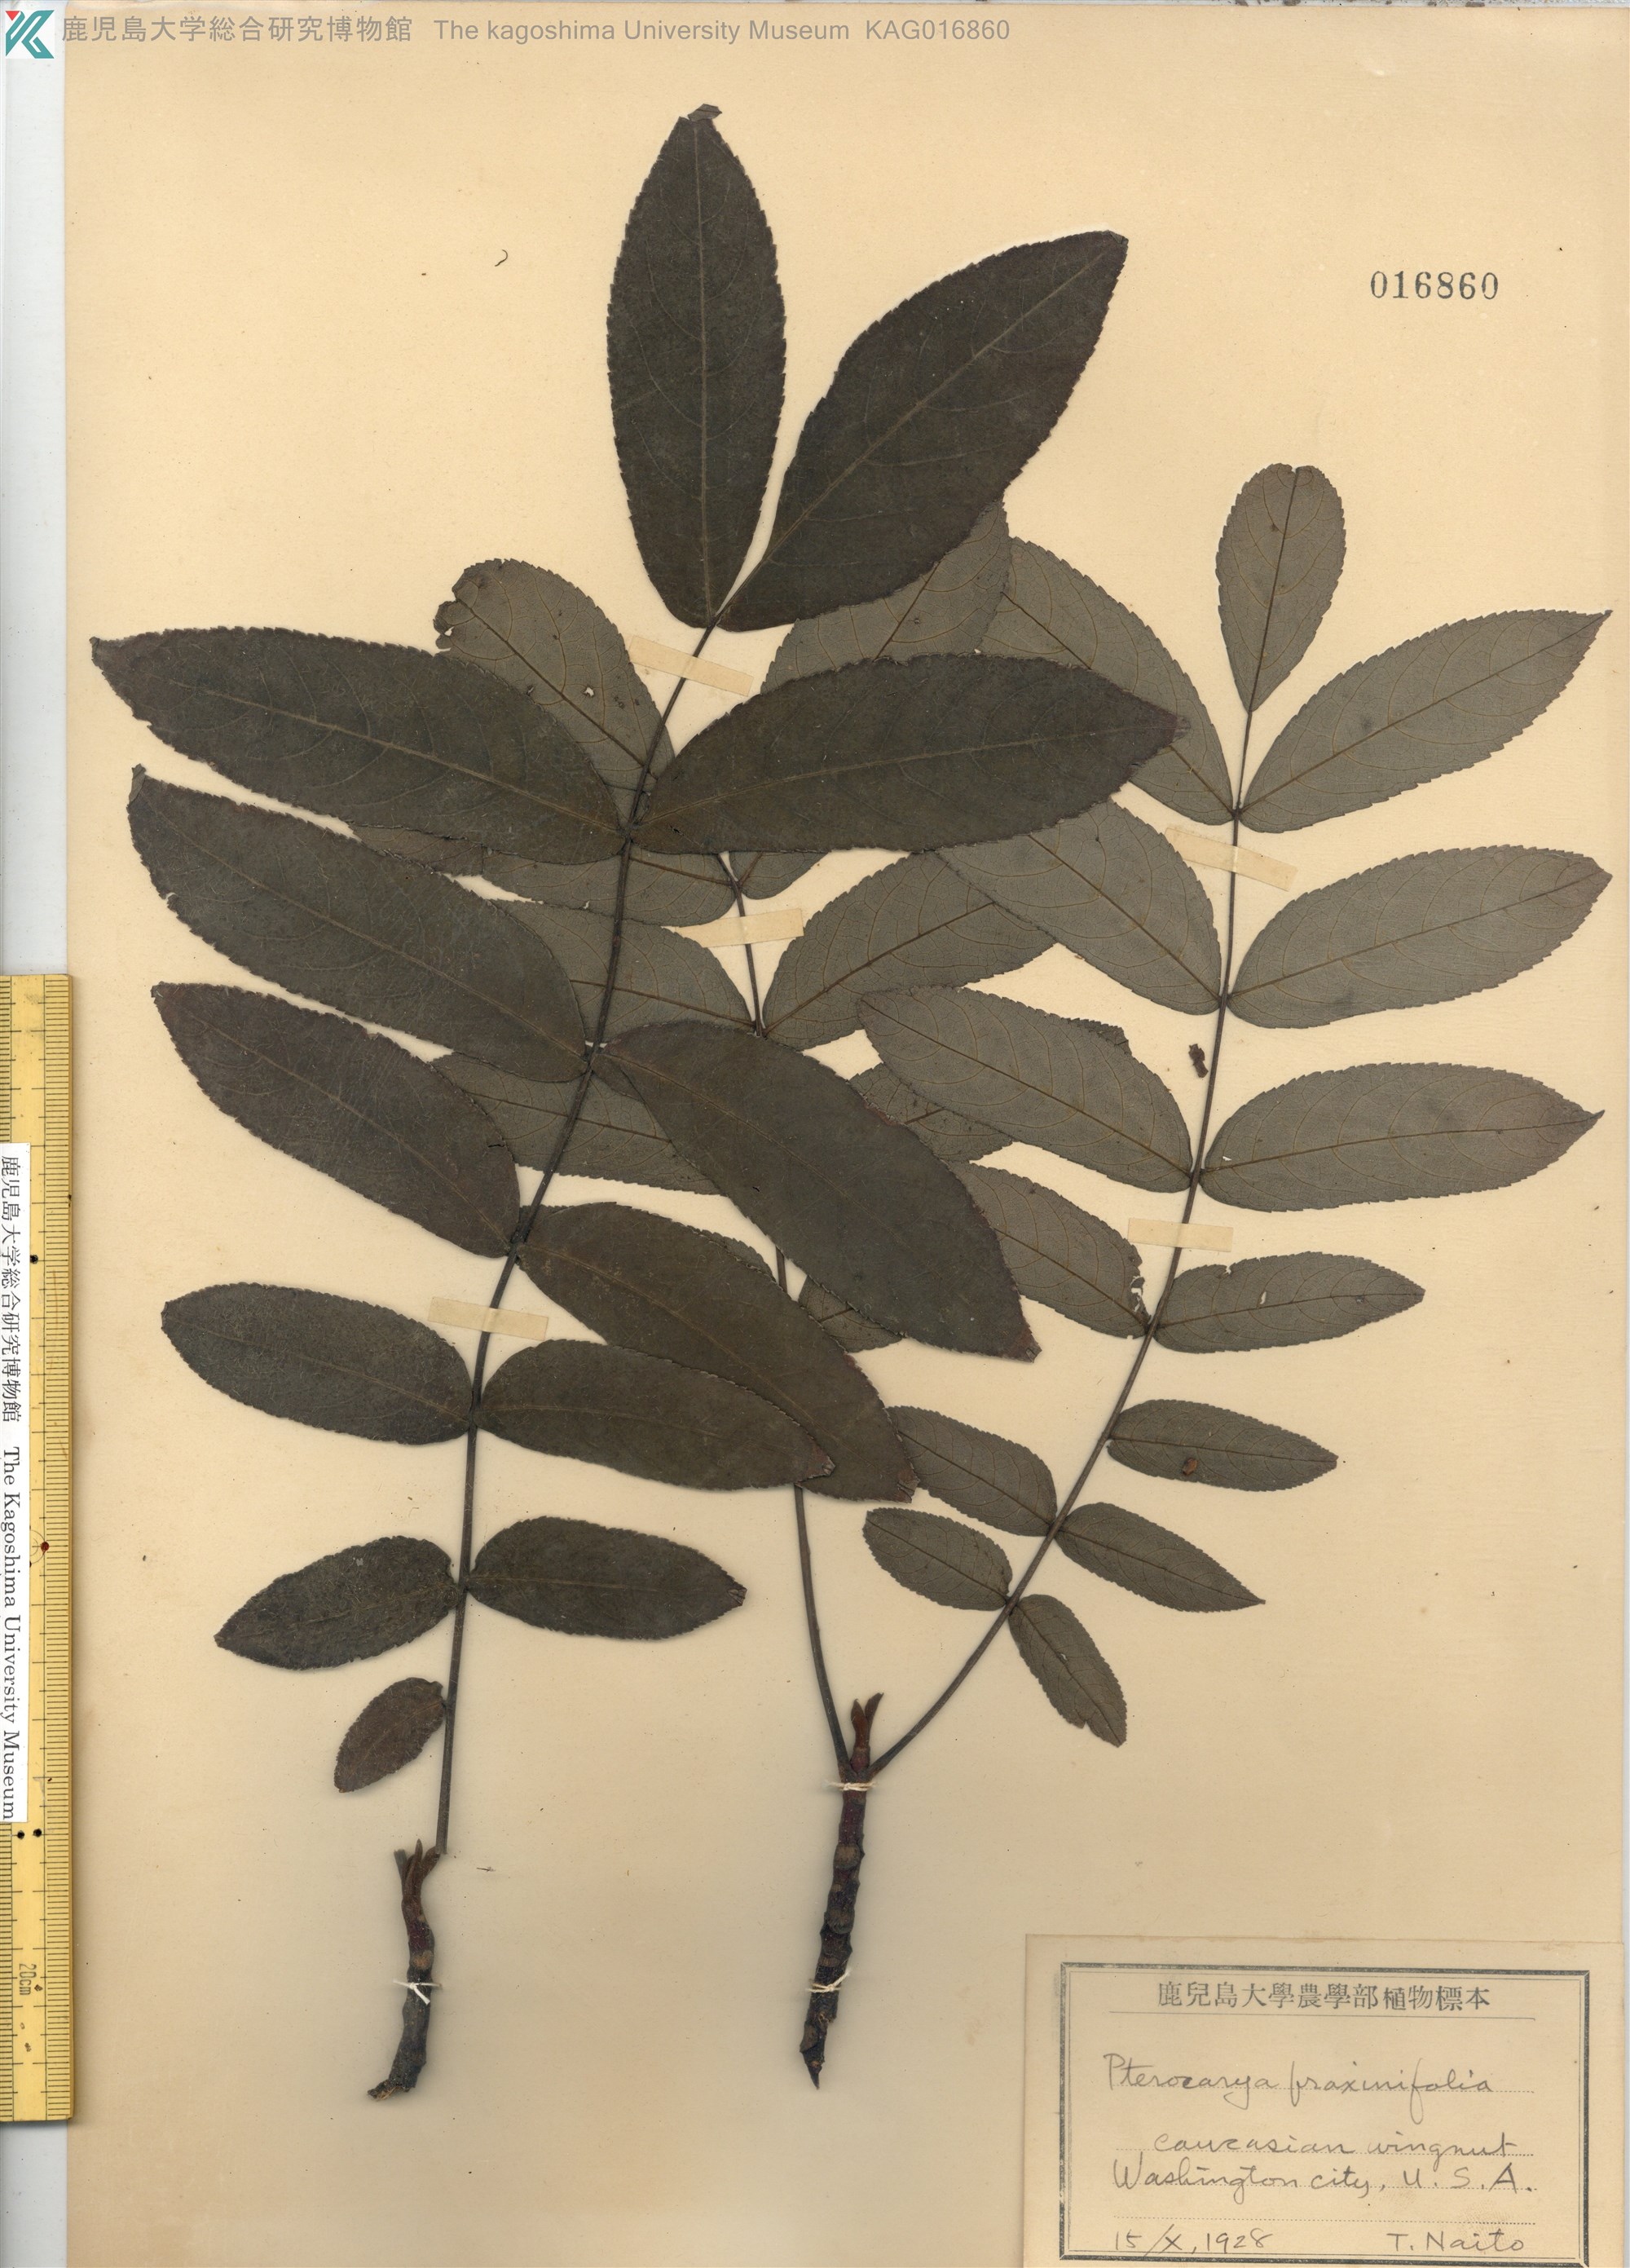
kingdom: Plantae
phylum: Tracheophyta
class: Magnoliopsida
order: Fagales
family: Juglandaceae
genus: Pterocarya
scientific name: Pterocarya fraxinifolia
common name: Caucasian wingnut
